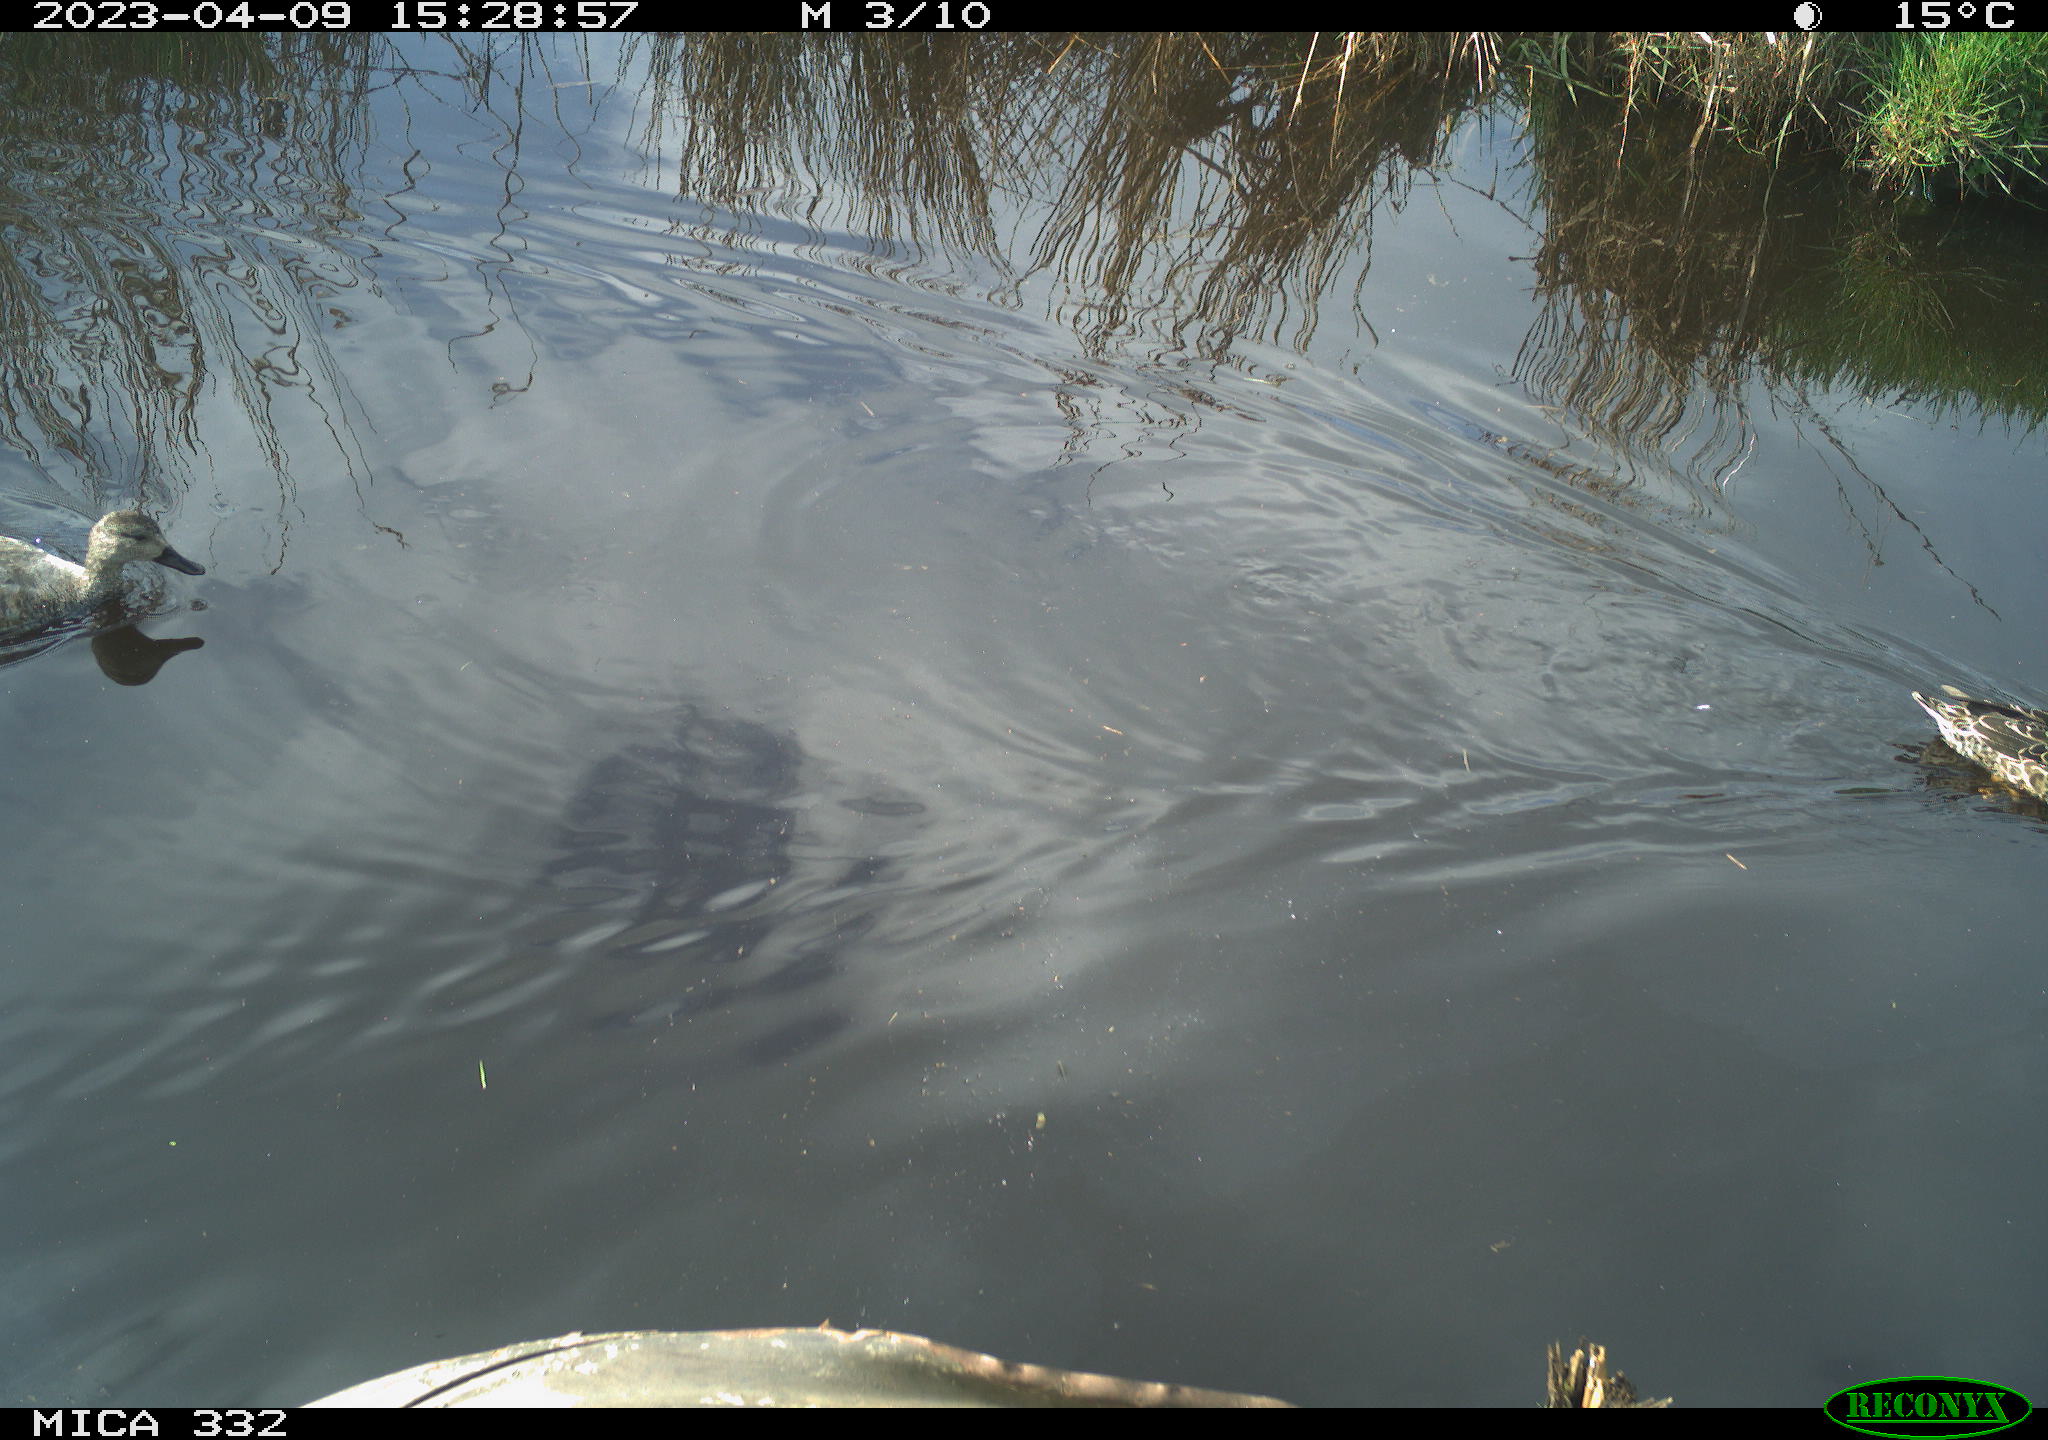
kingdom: Animalia
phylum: Chordata
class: Aves
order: Anseriformes
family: Anatidae
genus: Mareca
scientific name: Mareca strepera
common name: Gadwall
